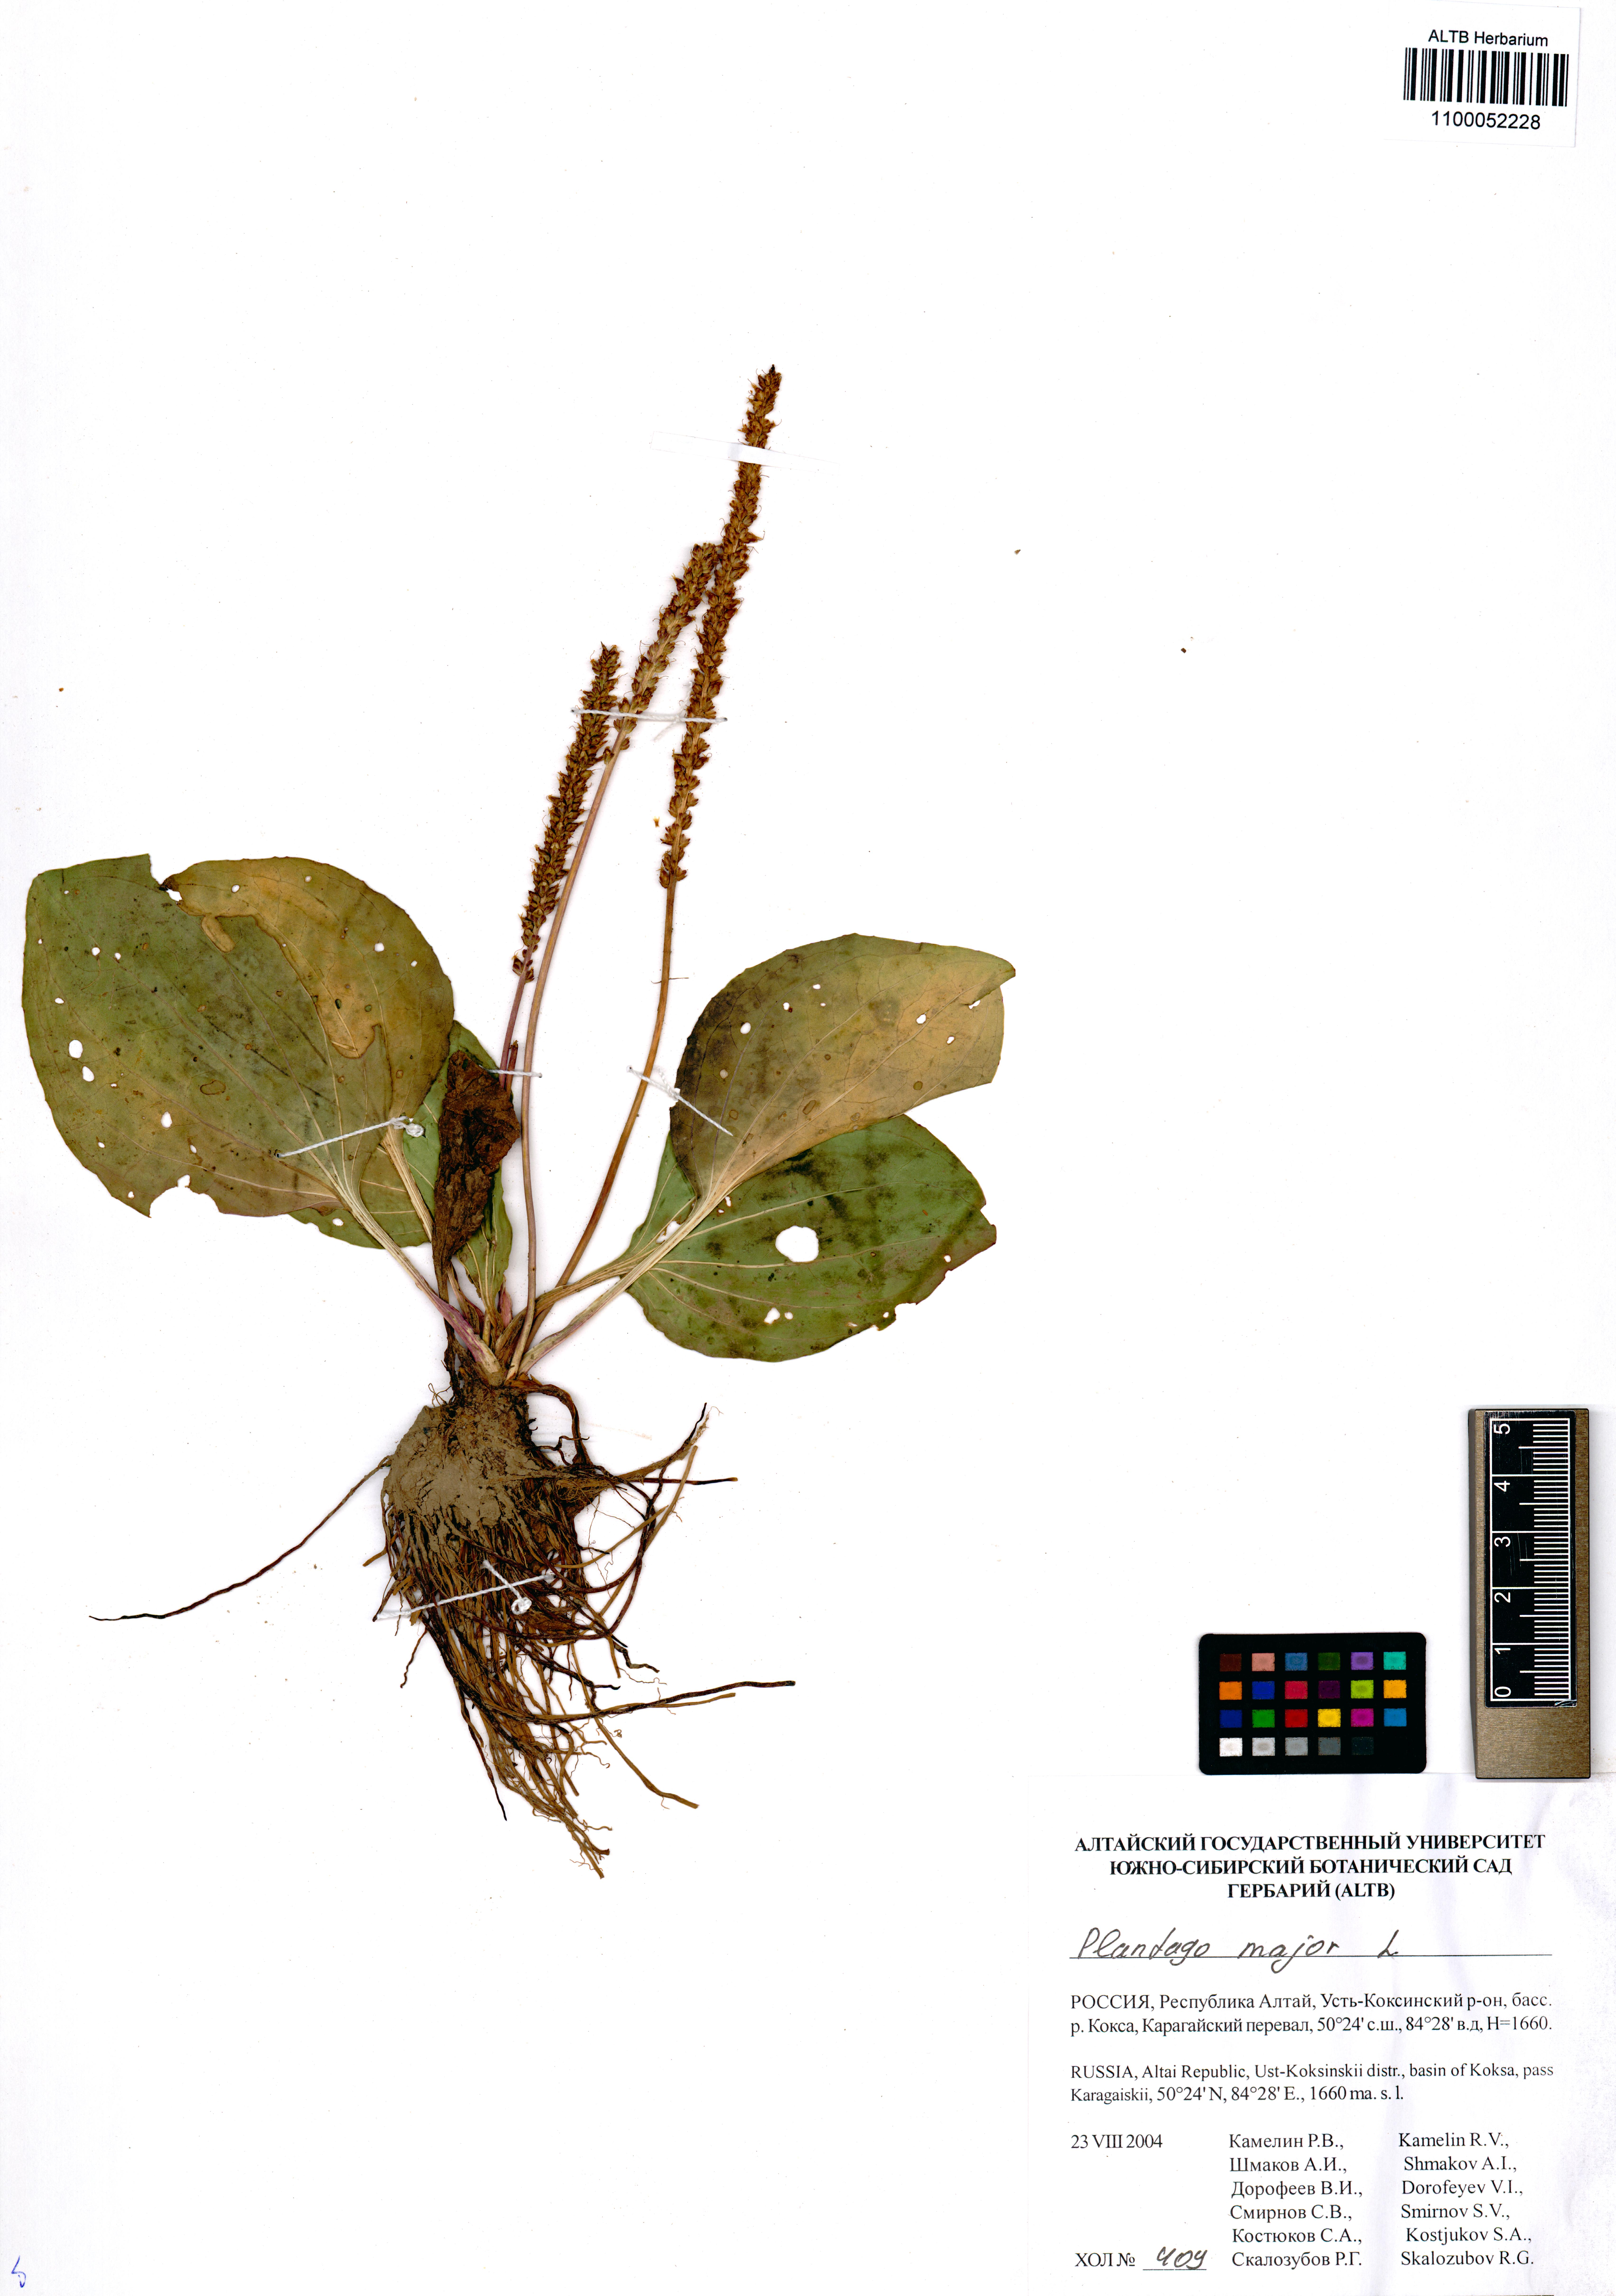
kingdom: Plantae
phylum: Tracheophyta
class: Magnoliopsida
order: Lamiales
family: Plantaginaceae
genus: Plantago
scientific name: Plantago major
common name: Common plantain
